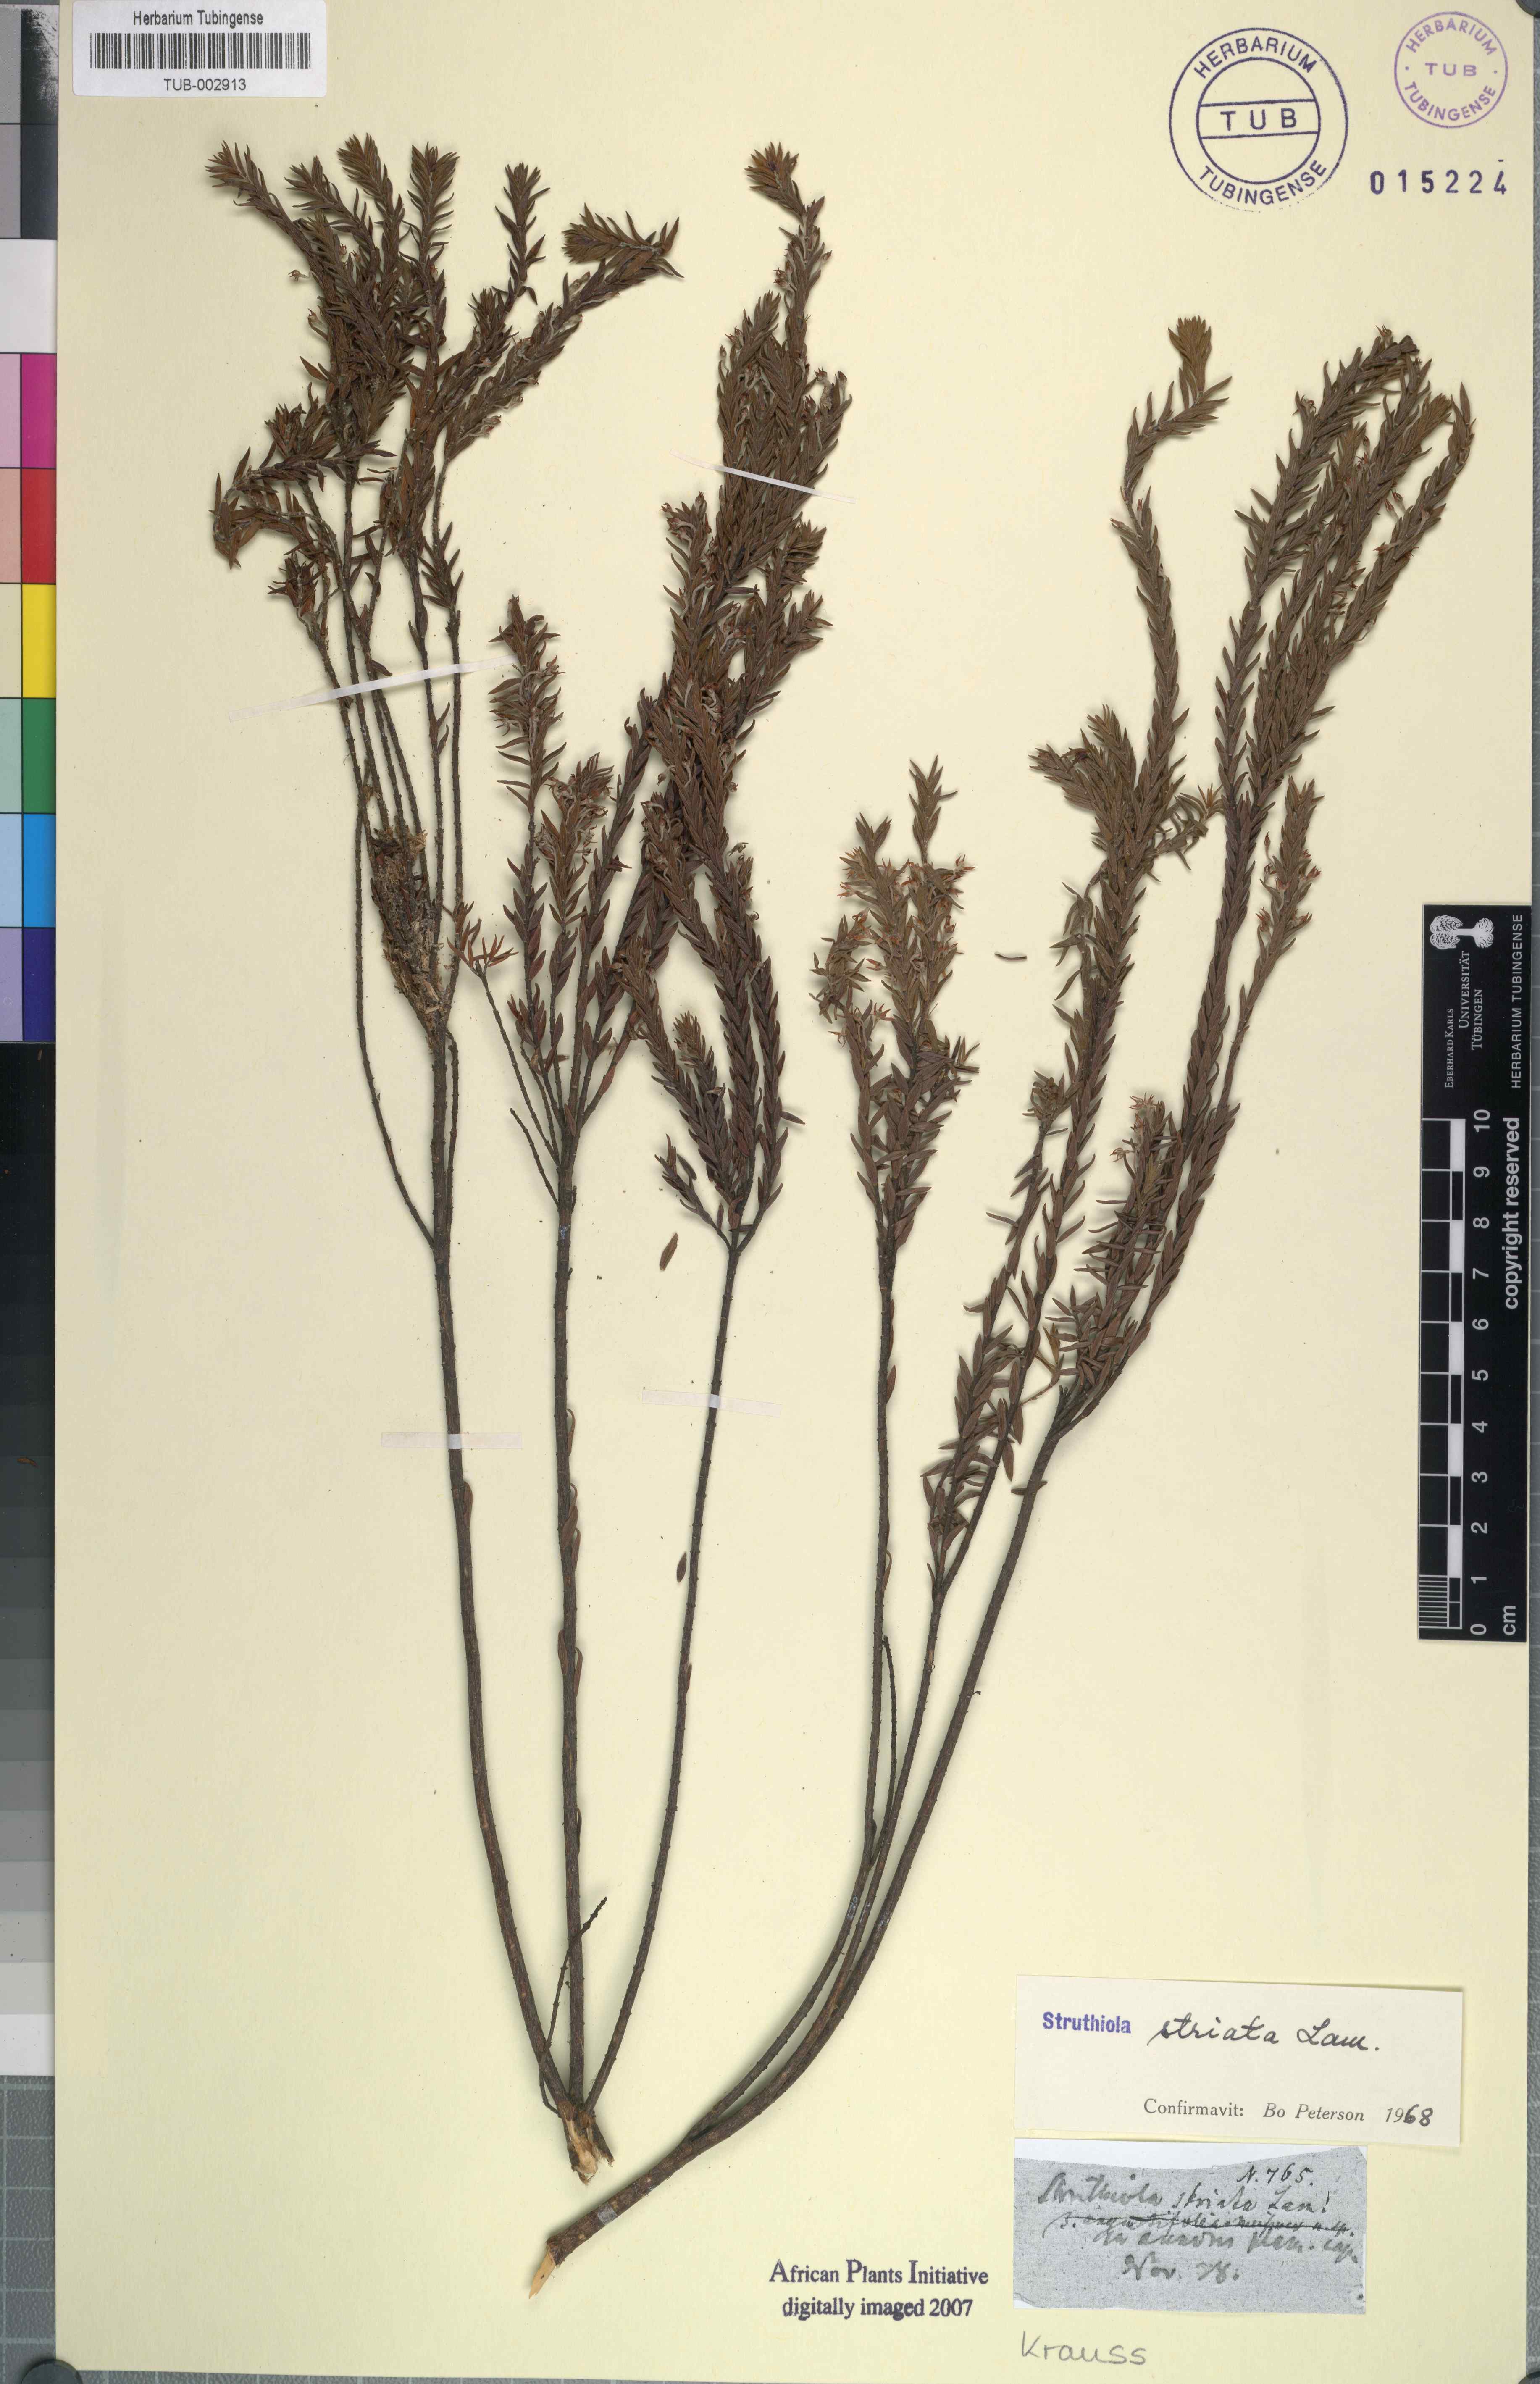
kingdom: Plantae
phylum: Tracheophyta
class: Magnoliopsida
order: Malvales
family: Thymelaeaceae
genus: Struthiola
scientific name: Struthiola striata
